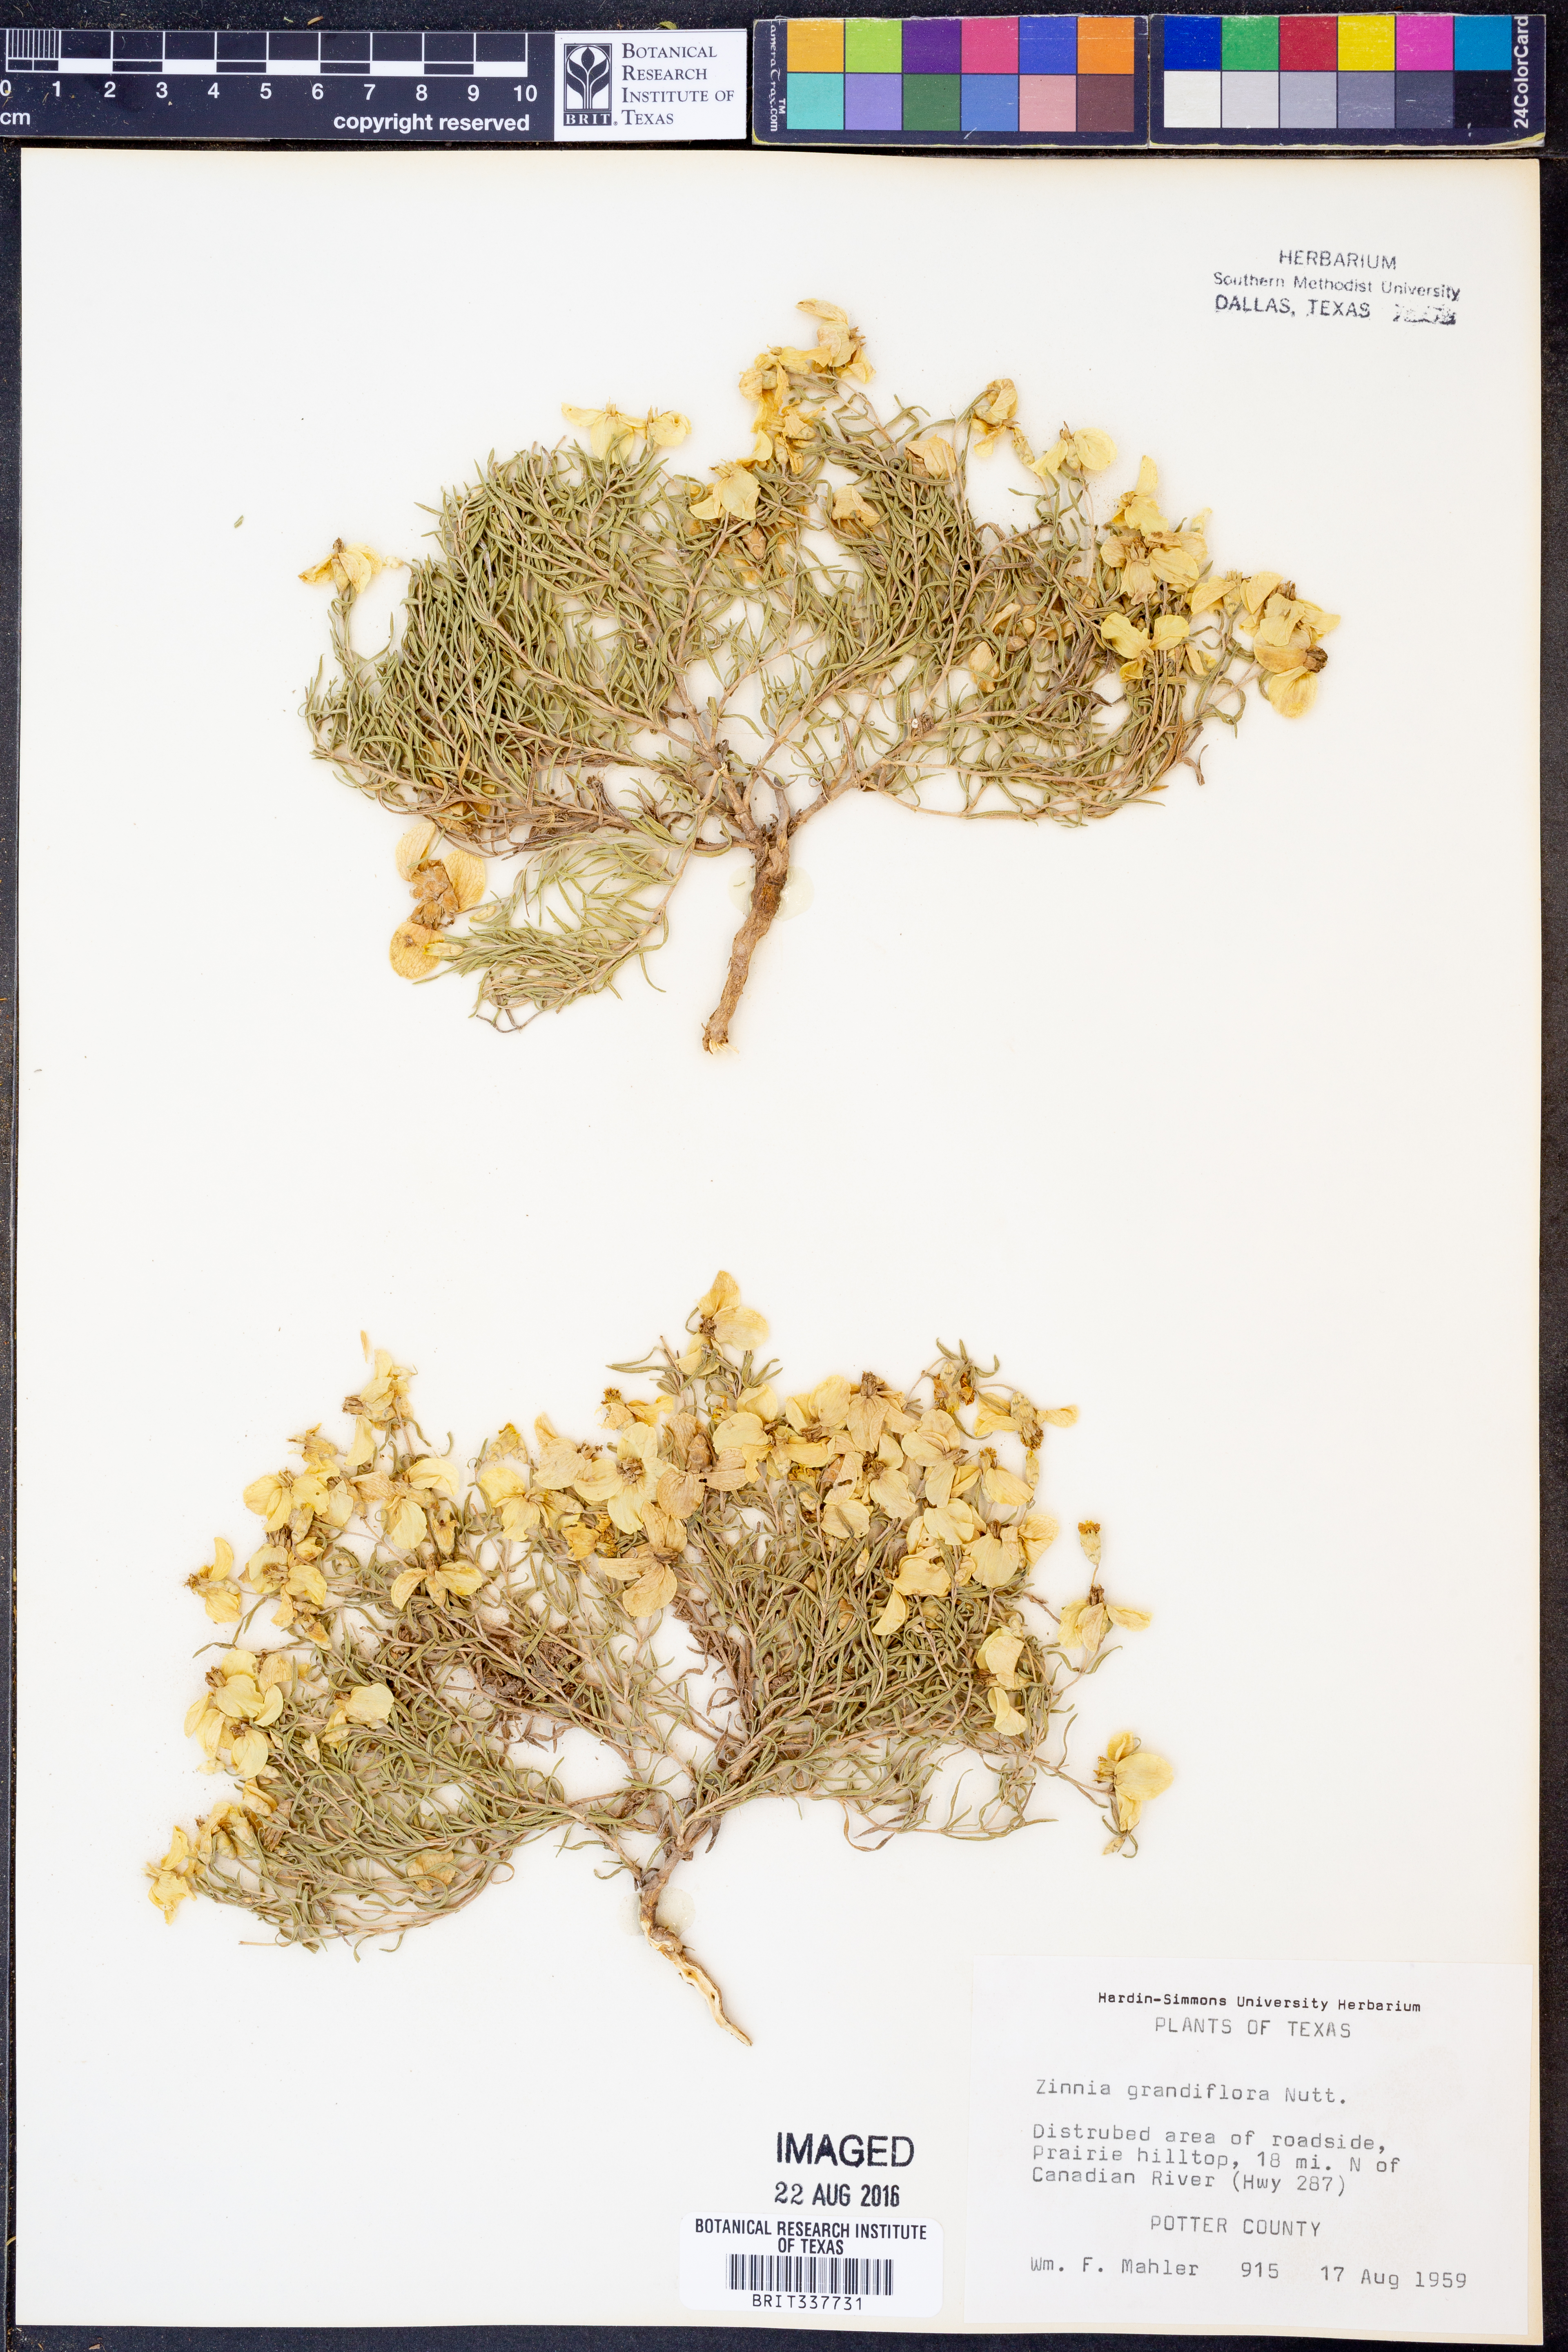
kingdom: Plantae
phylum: Tracheophyta
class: Magnoliopsida
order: Asterales
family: Asteraceae
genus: Zinnia
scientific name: Zinnia grandiflora
